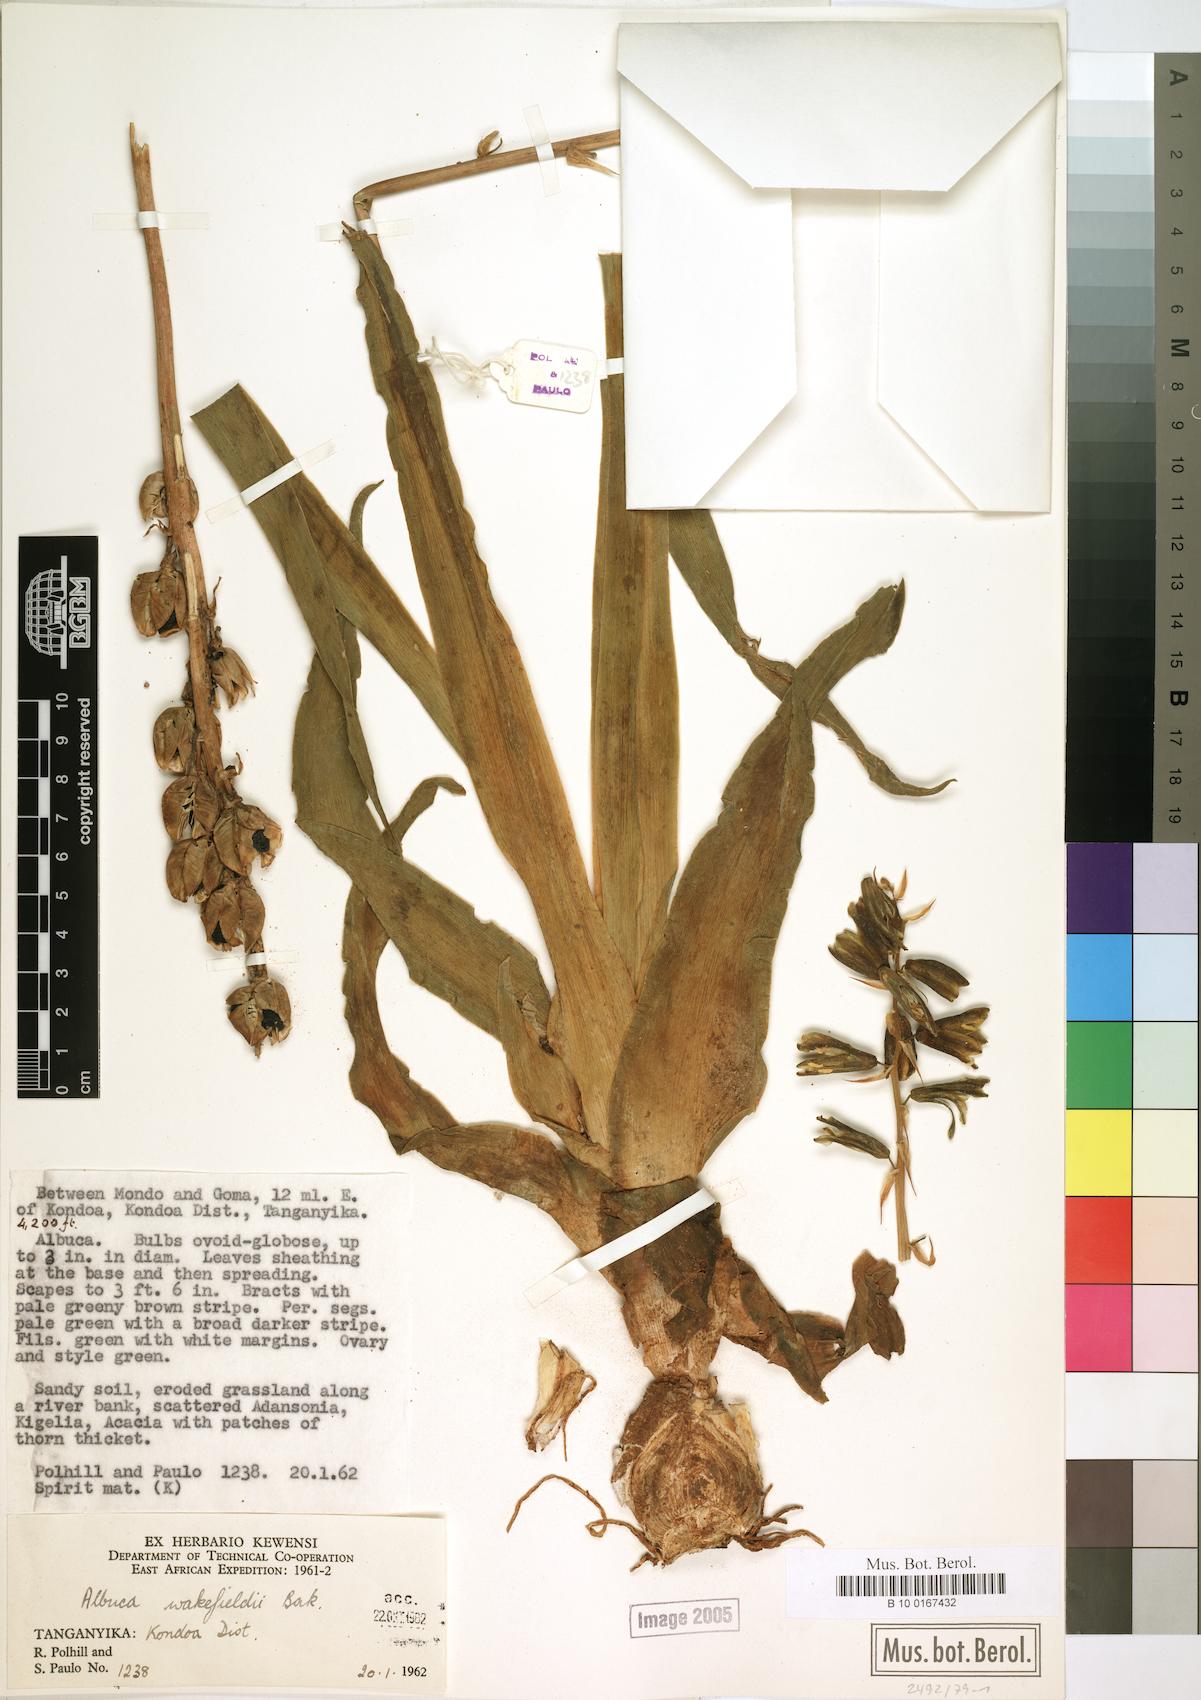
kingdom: Plantae
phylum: Tracheophyta
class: Liliopsida
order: Asparagales
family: Asparagaceae
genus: Albuca
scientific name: Albuca abyssinica
